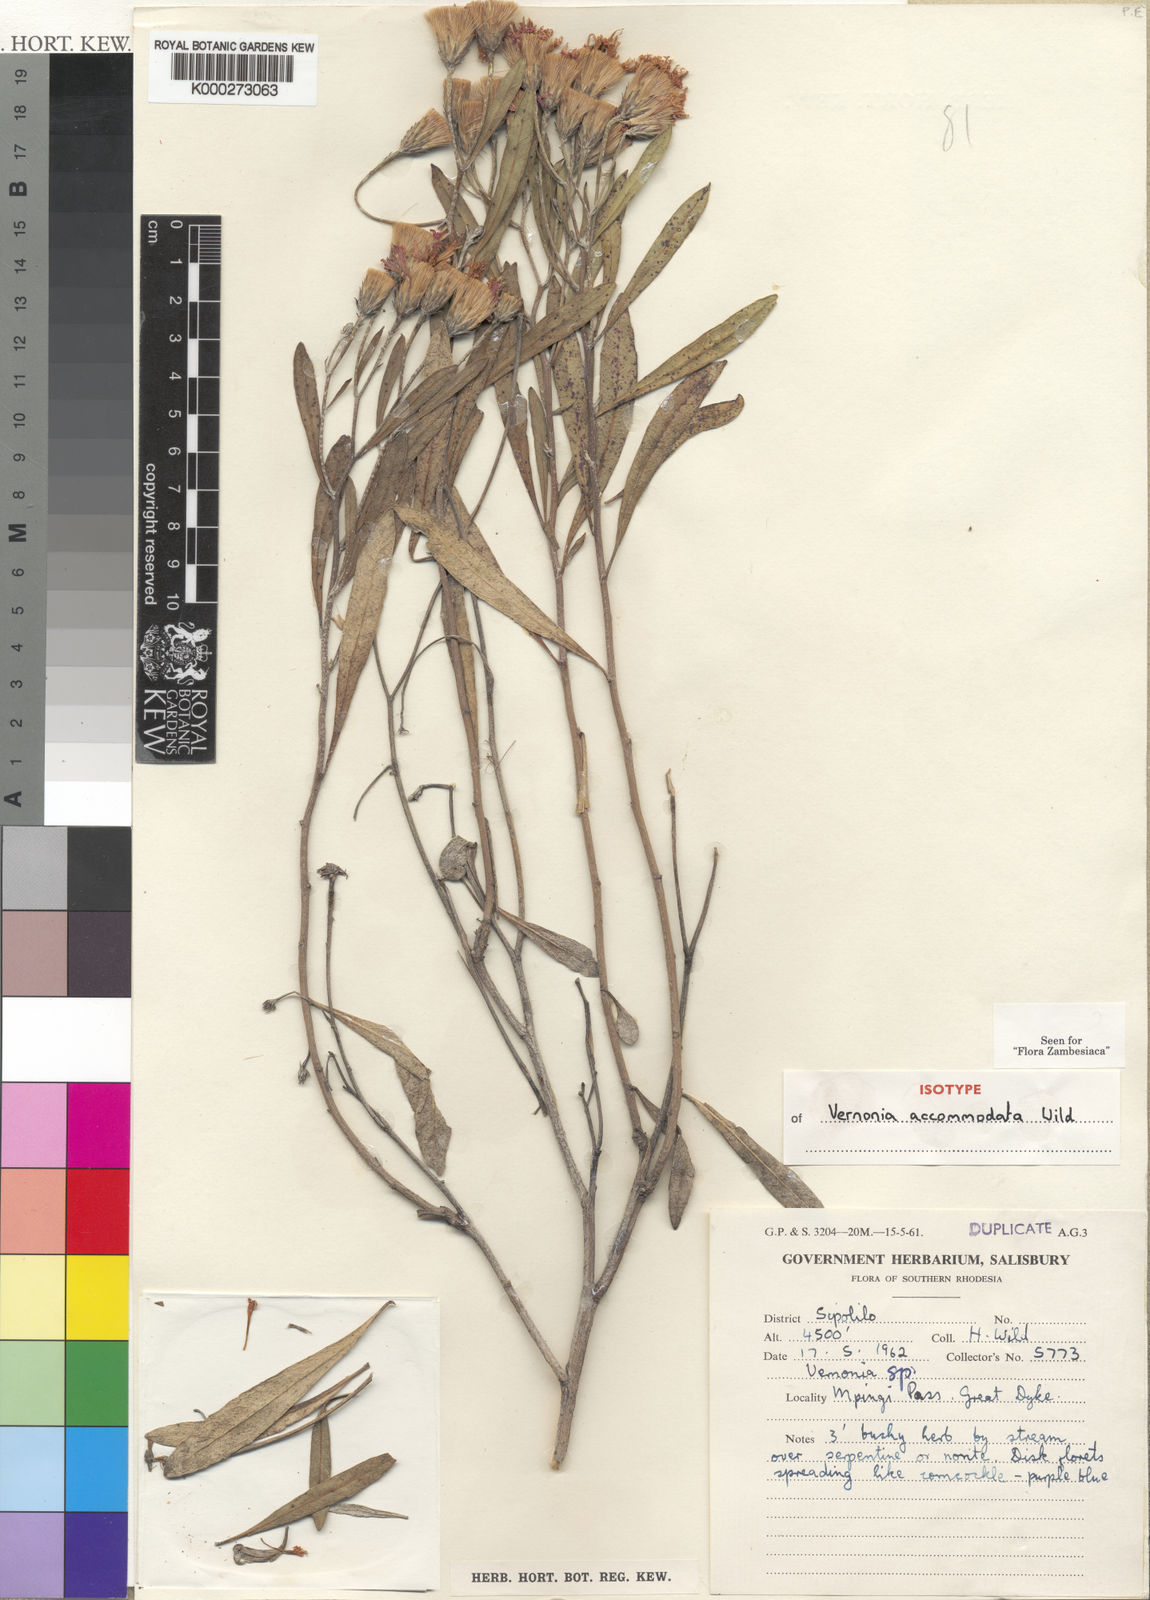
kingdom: Plantae
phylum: Tracheophyta
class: Magnoliopsida
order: Asterales
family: Asteraceae
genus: Linzia
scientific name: Linzia accommodata
